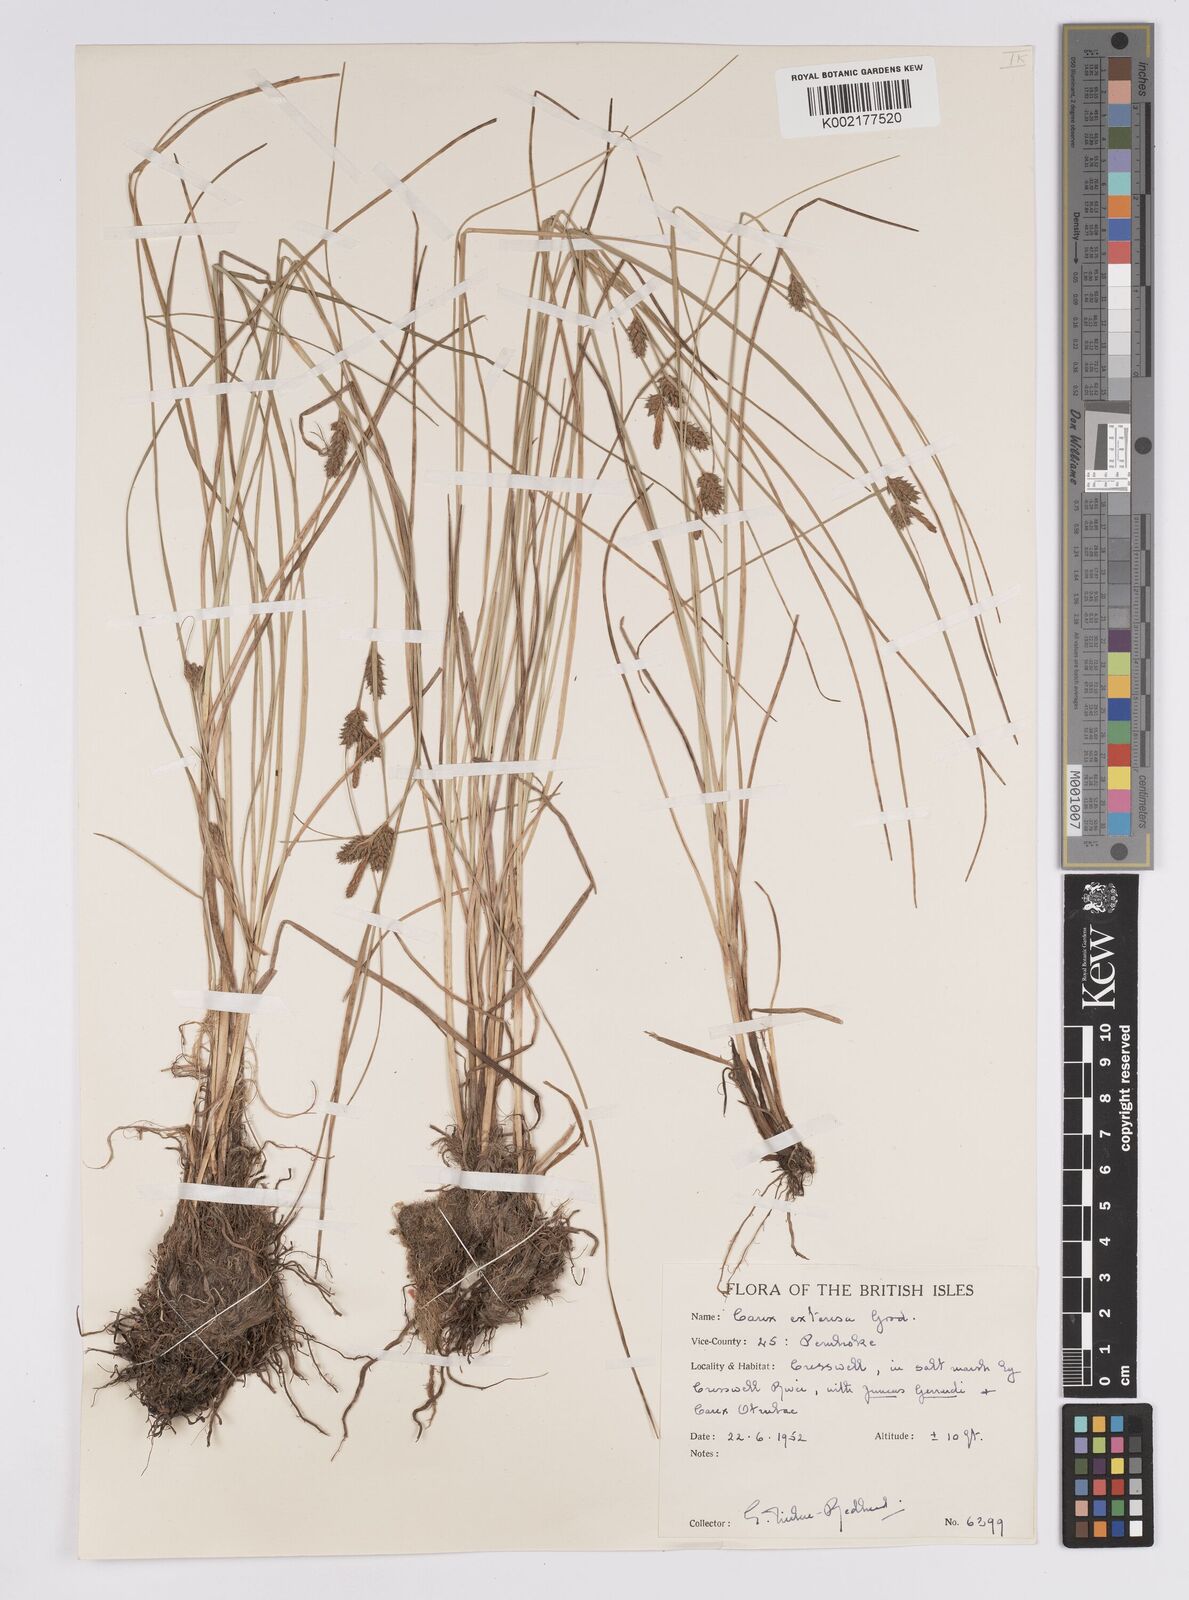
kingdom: Plantae
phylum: Tracheophyta
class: Liliopsida
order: Poales
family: Cyperaceae
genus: Carex
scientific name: Carex extensa
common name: Long-bracted sedge
